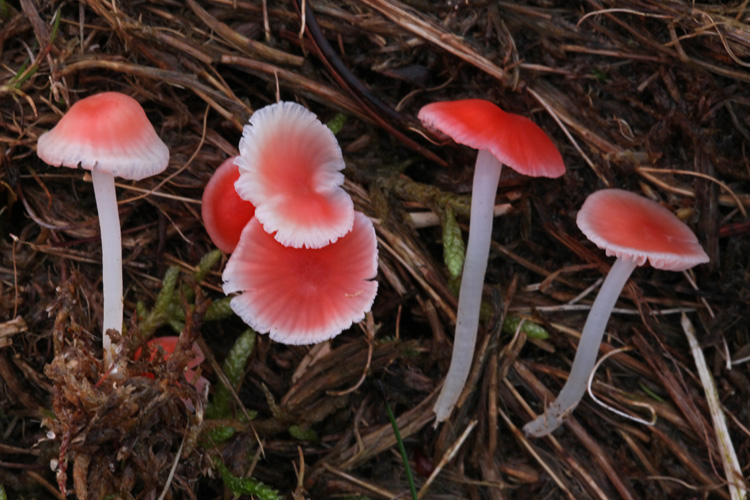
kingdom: Fungi
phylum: Basidiomycota
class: Agaricomycetes
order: Agaricales
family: Mycenaceae
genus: Atheniella
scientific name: Atheniella adonis
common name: rønnerød huesvamp
